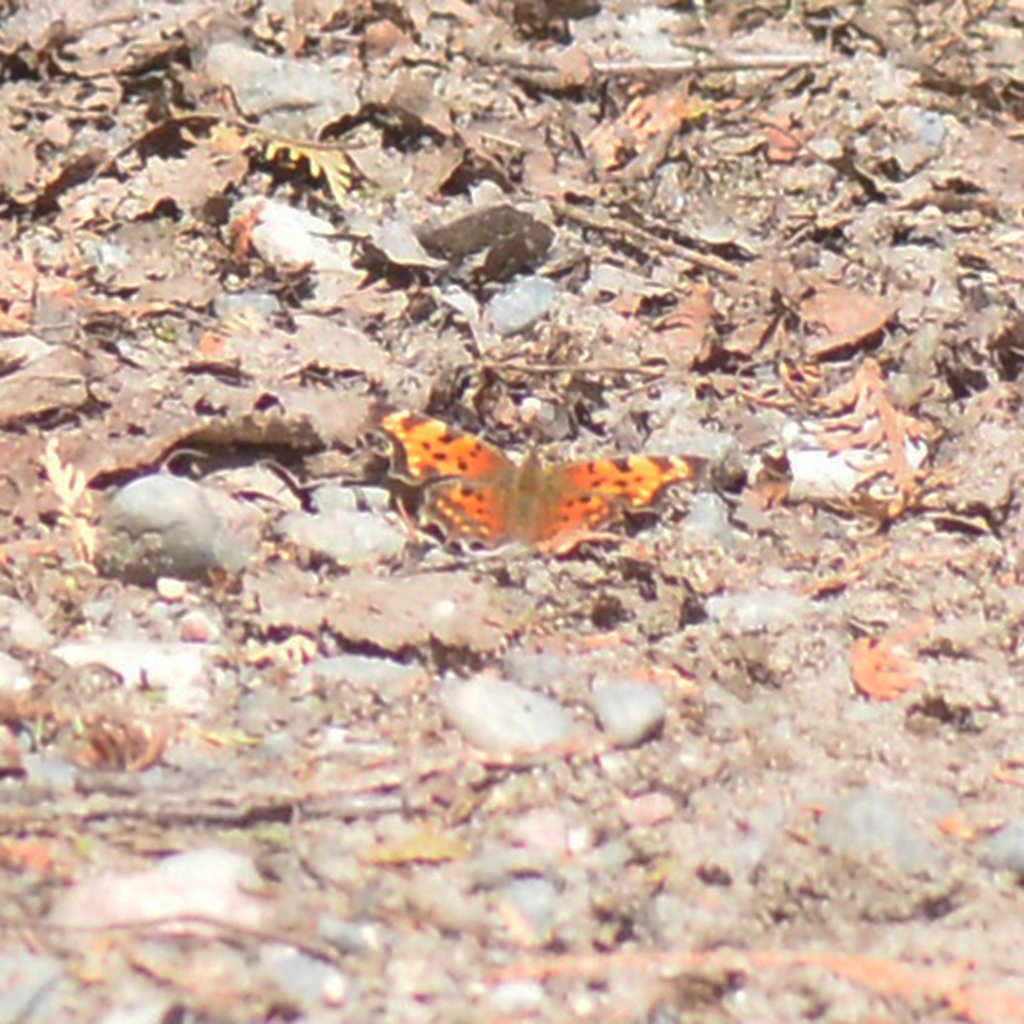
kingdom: Animalia
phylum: Arthropoda
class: Insecta
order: Lepidoptera
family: Nymphalidae
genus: Polygonia
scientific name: Polygonia faunus
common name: Green Comma
